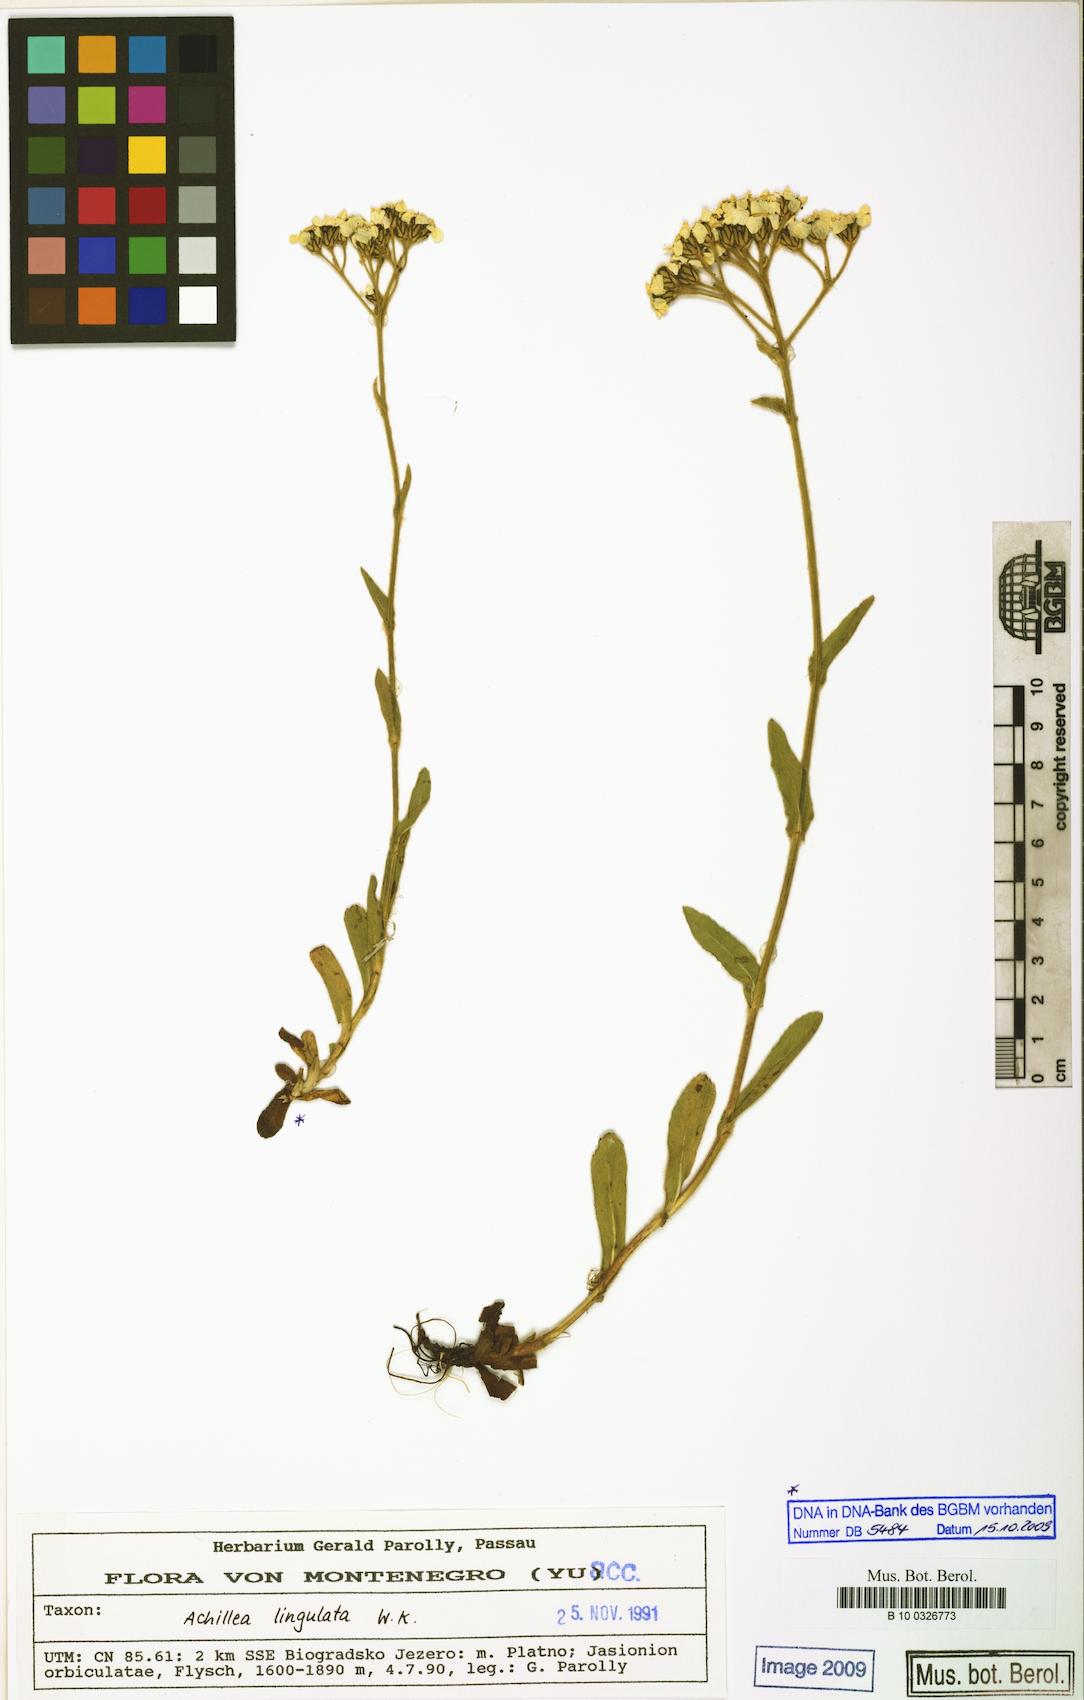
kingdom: Plantae
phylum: Tracheophyta
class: Magnoliopsida
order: Asterales
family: Asteraceae
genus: Achillea
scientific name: Achillea lingulata
